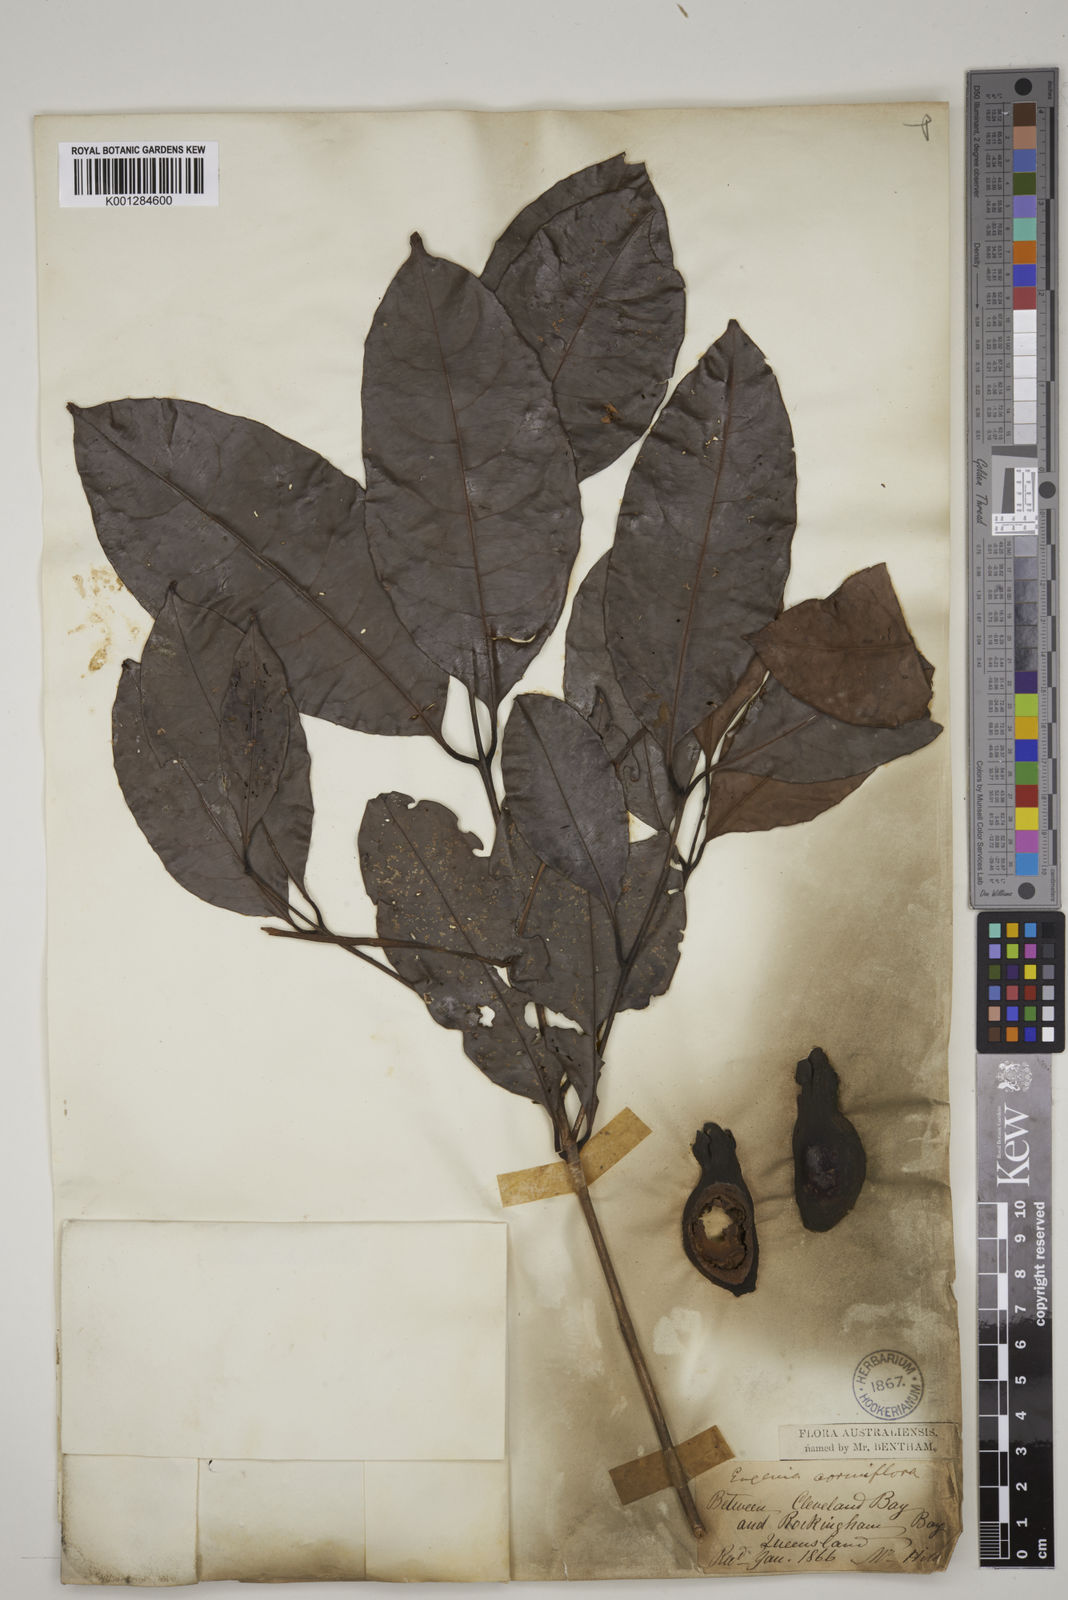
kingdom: Plantae
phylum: Tracheophyta
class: Magnoliopsida
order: Myrtales
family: Myrtaceae
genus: Syzygium
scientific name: Syzygium cormiflorum
